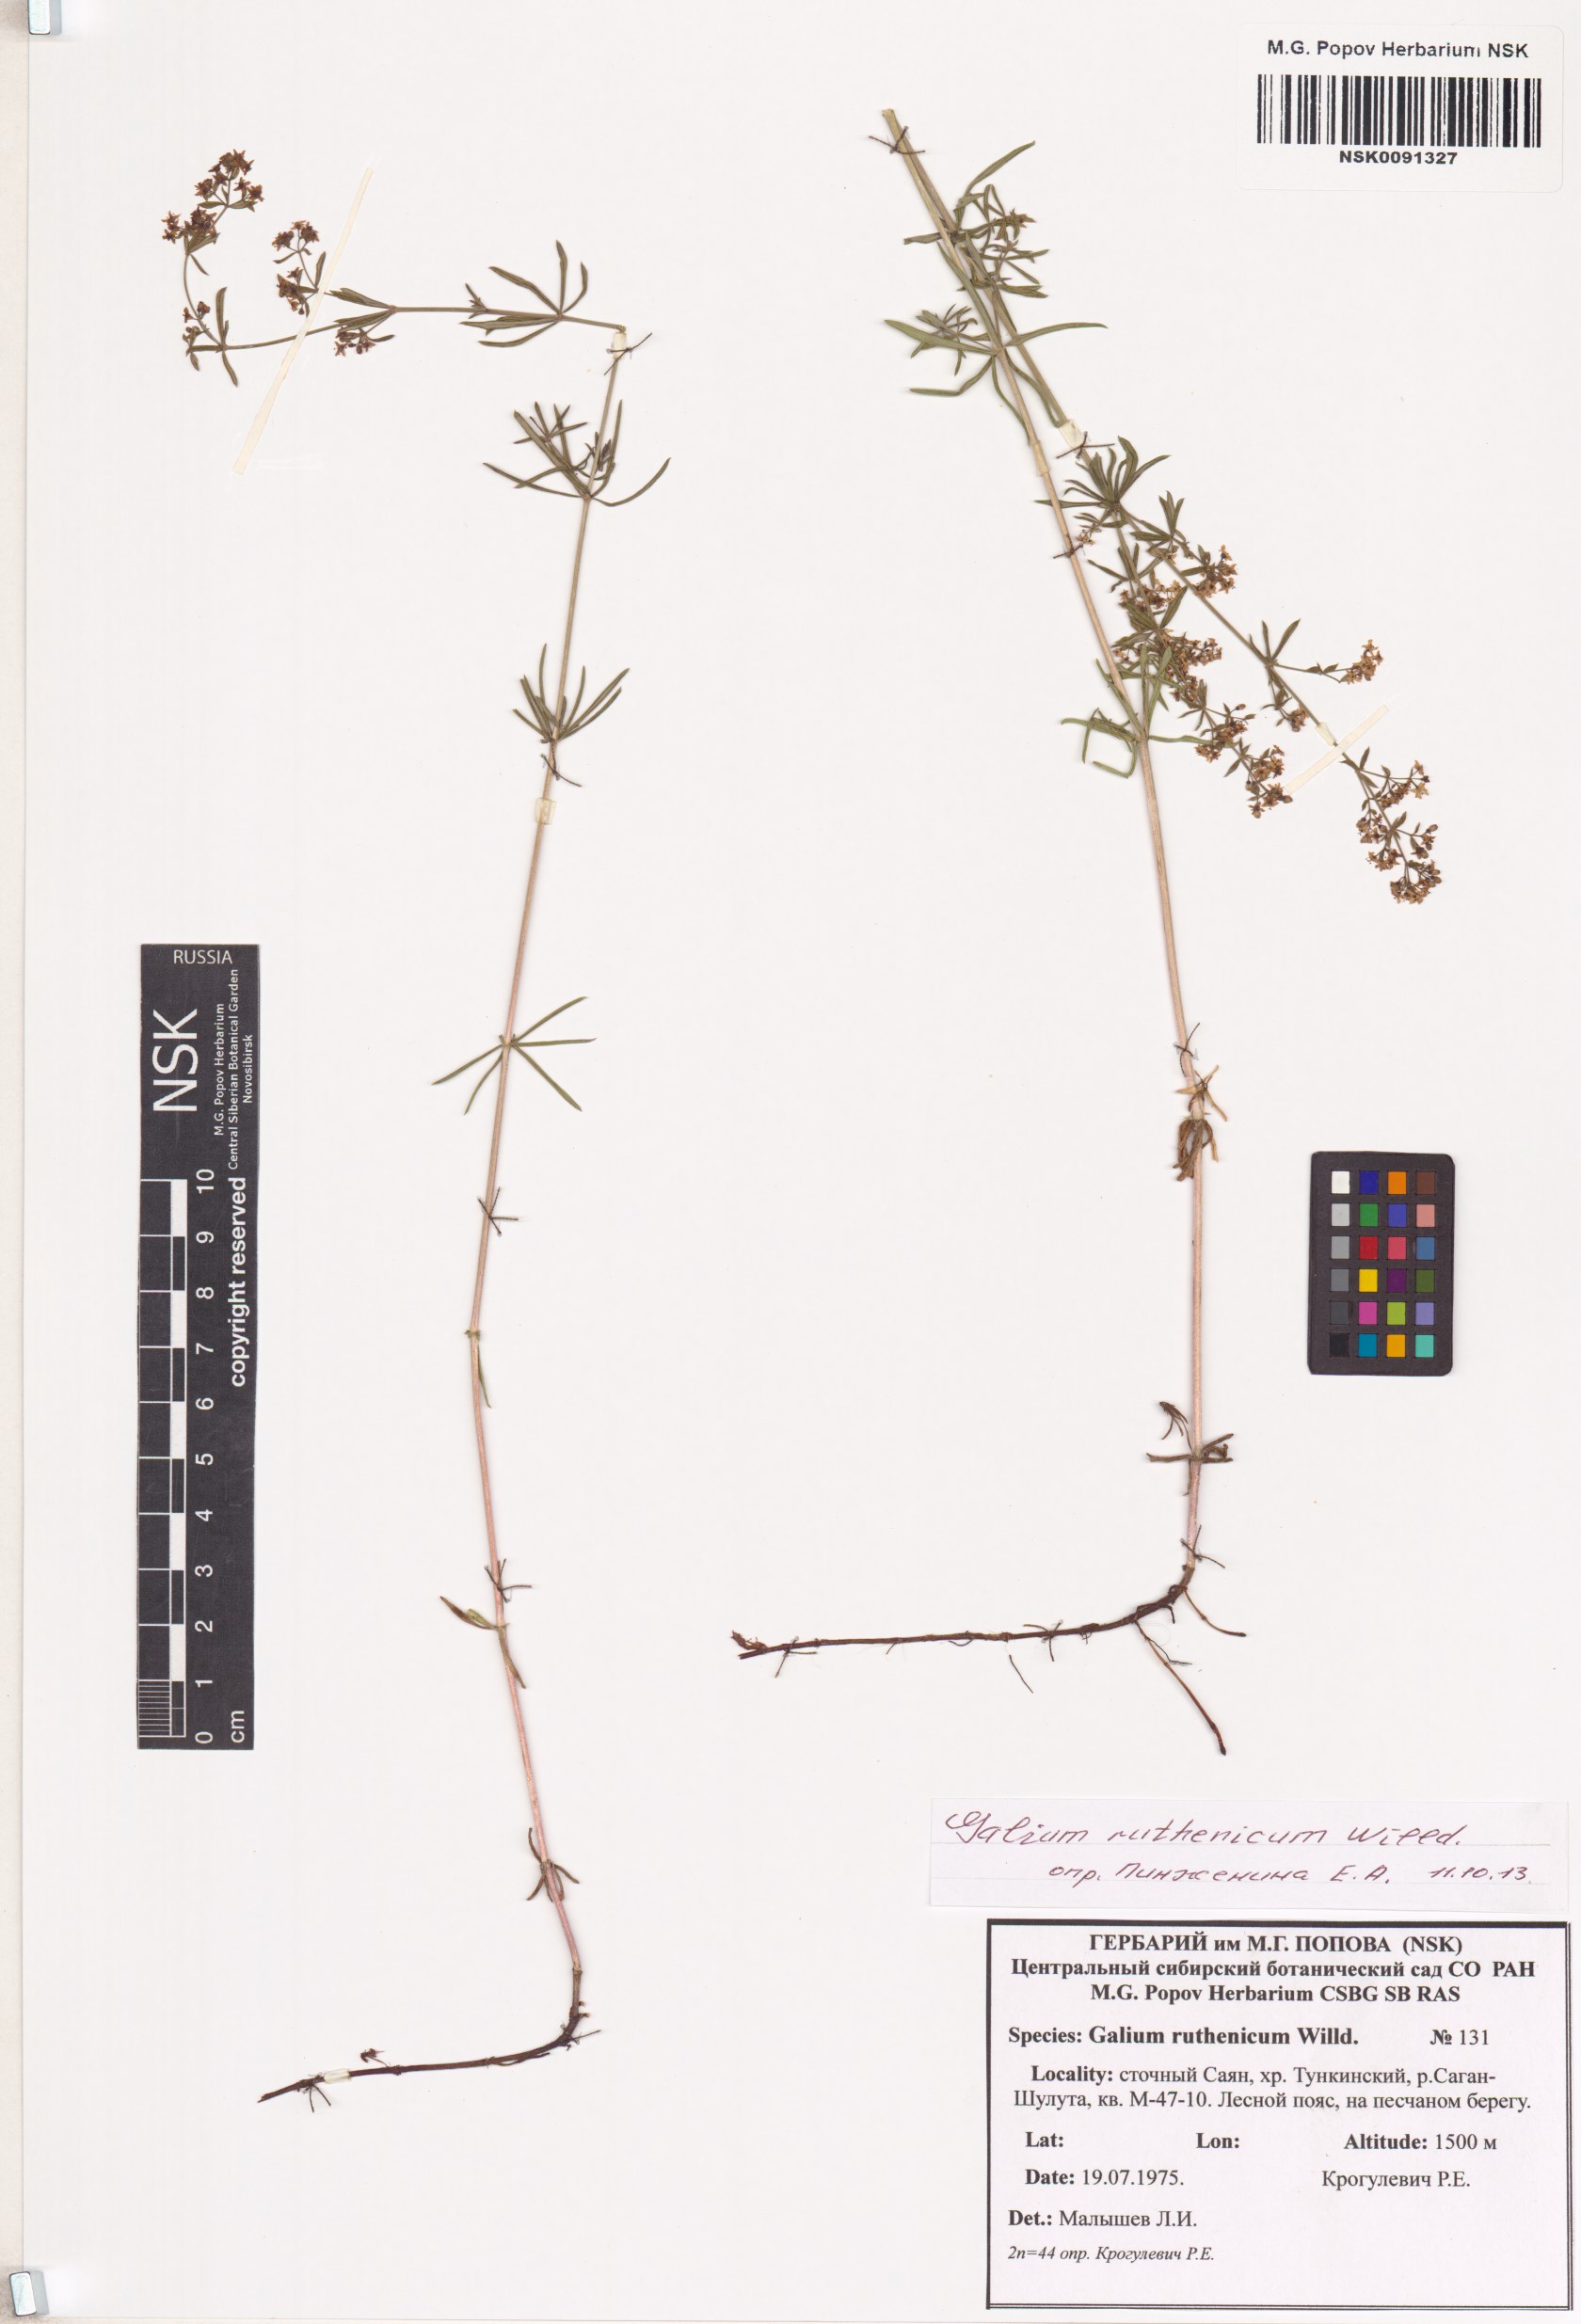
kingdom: Plantae
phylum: Tracheophyta
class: Magnoliopsida
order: Gentianales
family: Rubiaceae
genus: Galium
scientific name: Galium verum
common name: Lady's bedstraw
